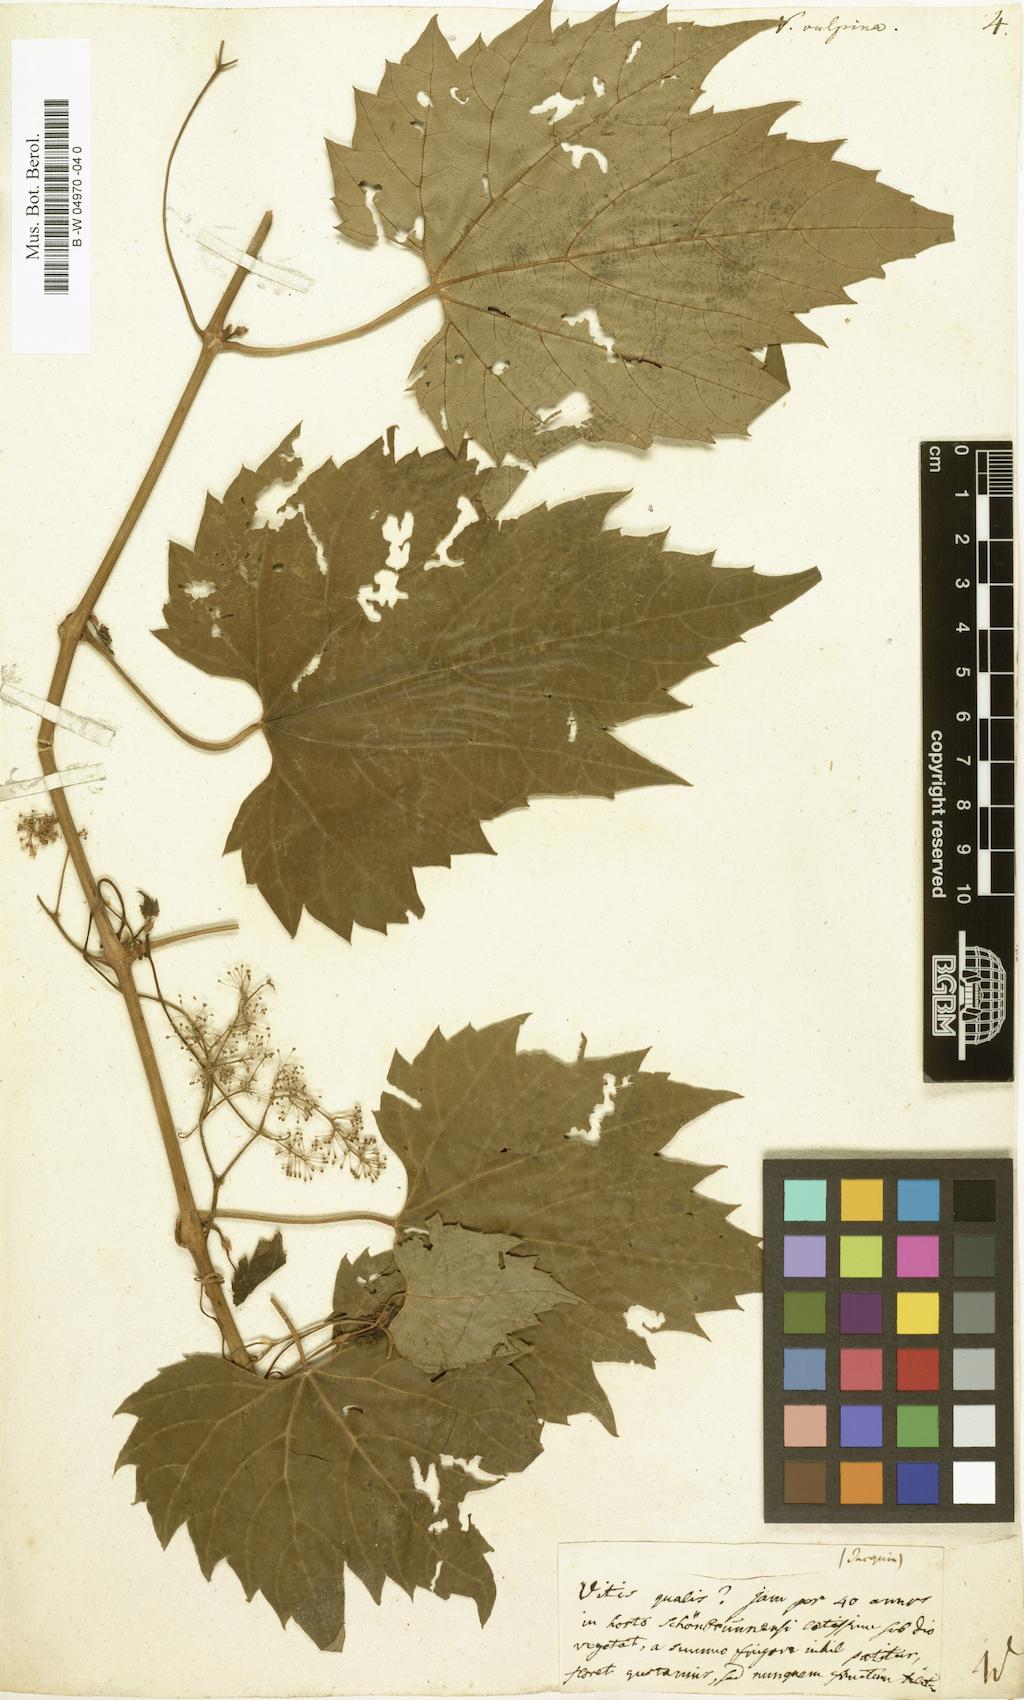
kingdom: Plantae
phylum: Tracheophyta
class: Magnoliopsida
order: Vitales
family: Vitaceae
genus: Vitis
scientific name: Vitis vulpina
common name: Frost grape
